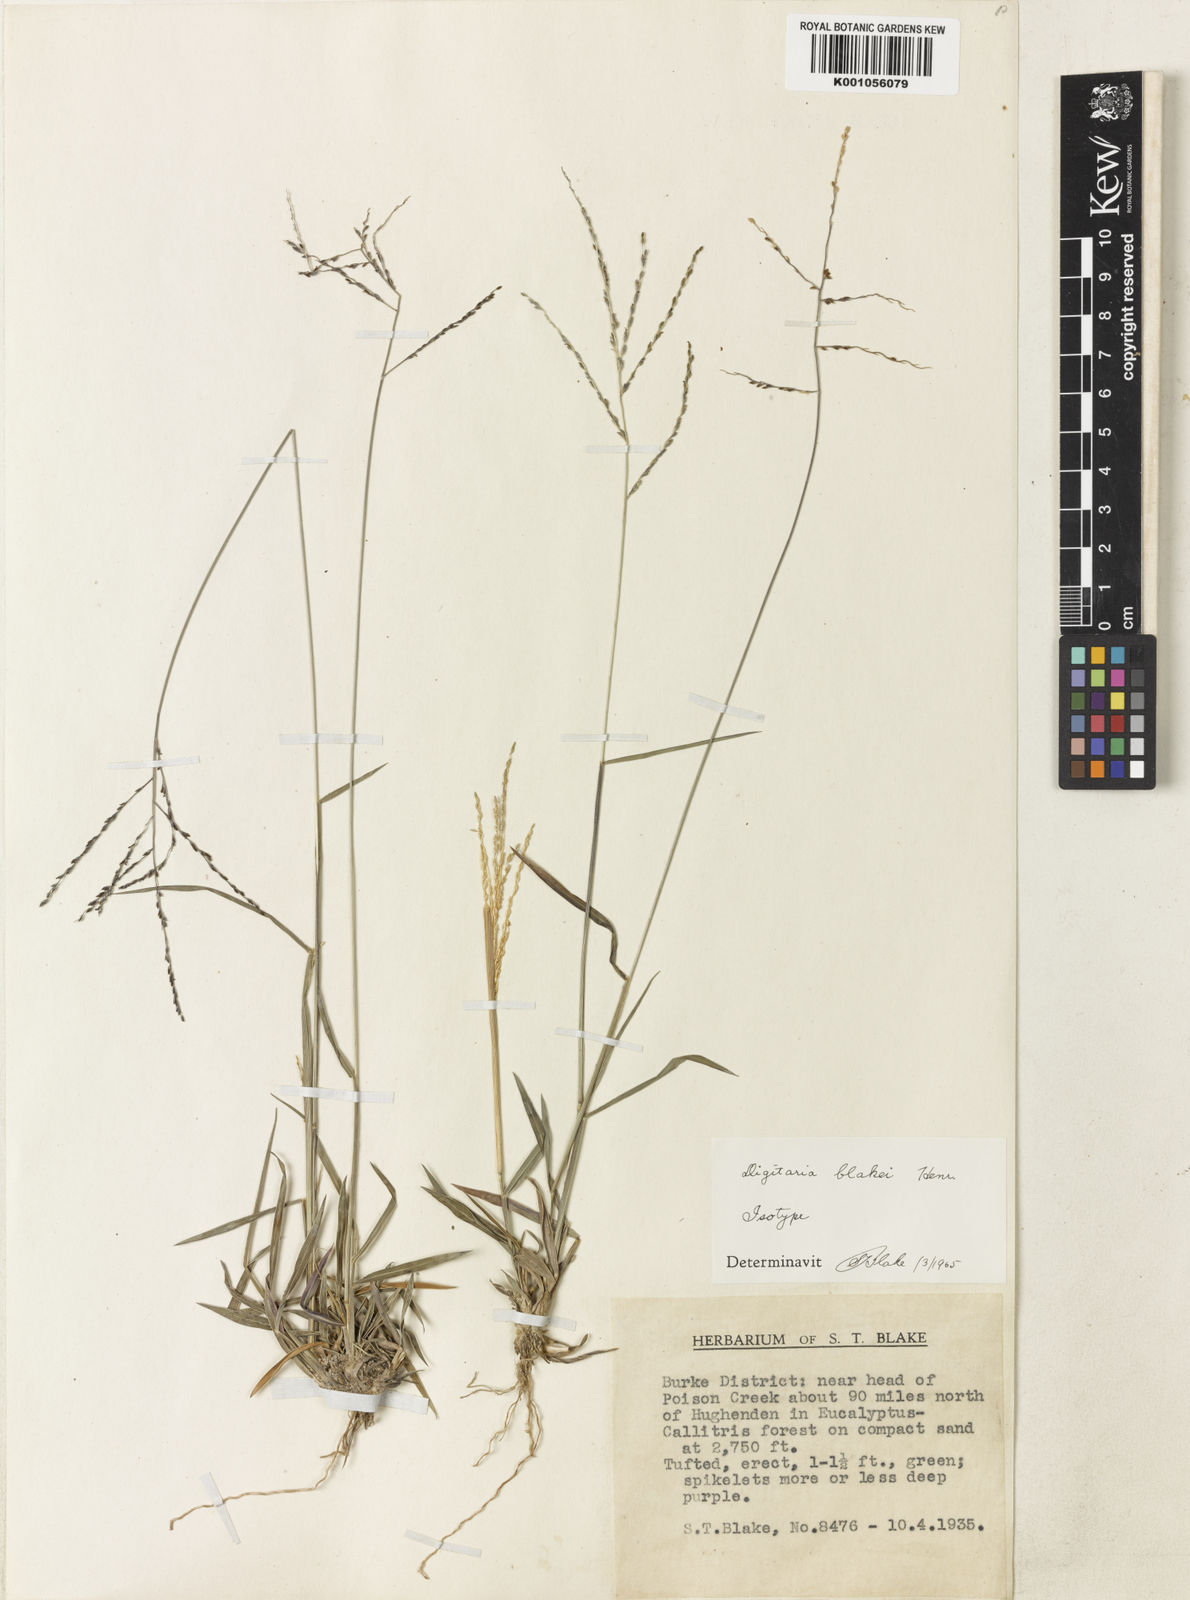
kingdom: Plantae
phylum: Tracheophyta
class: Liliopsida
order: Poales
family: Poaceae
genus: Digitaria
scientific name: Digitaria orbata
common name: Crabgrass
